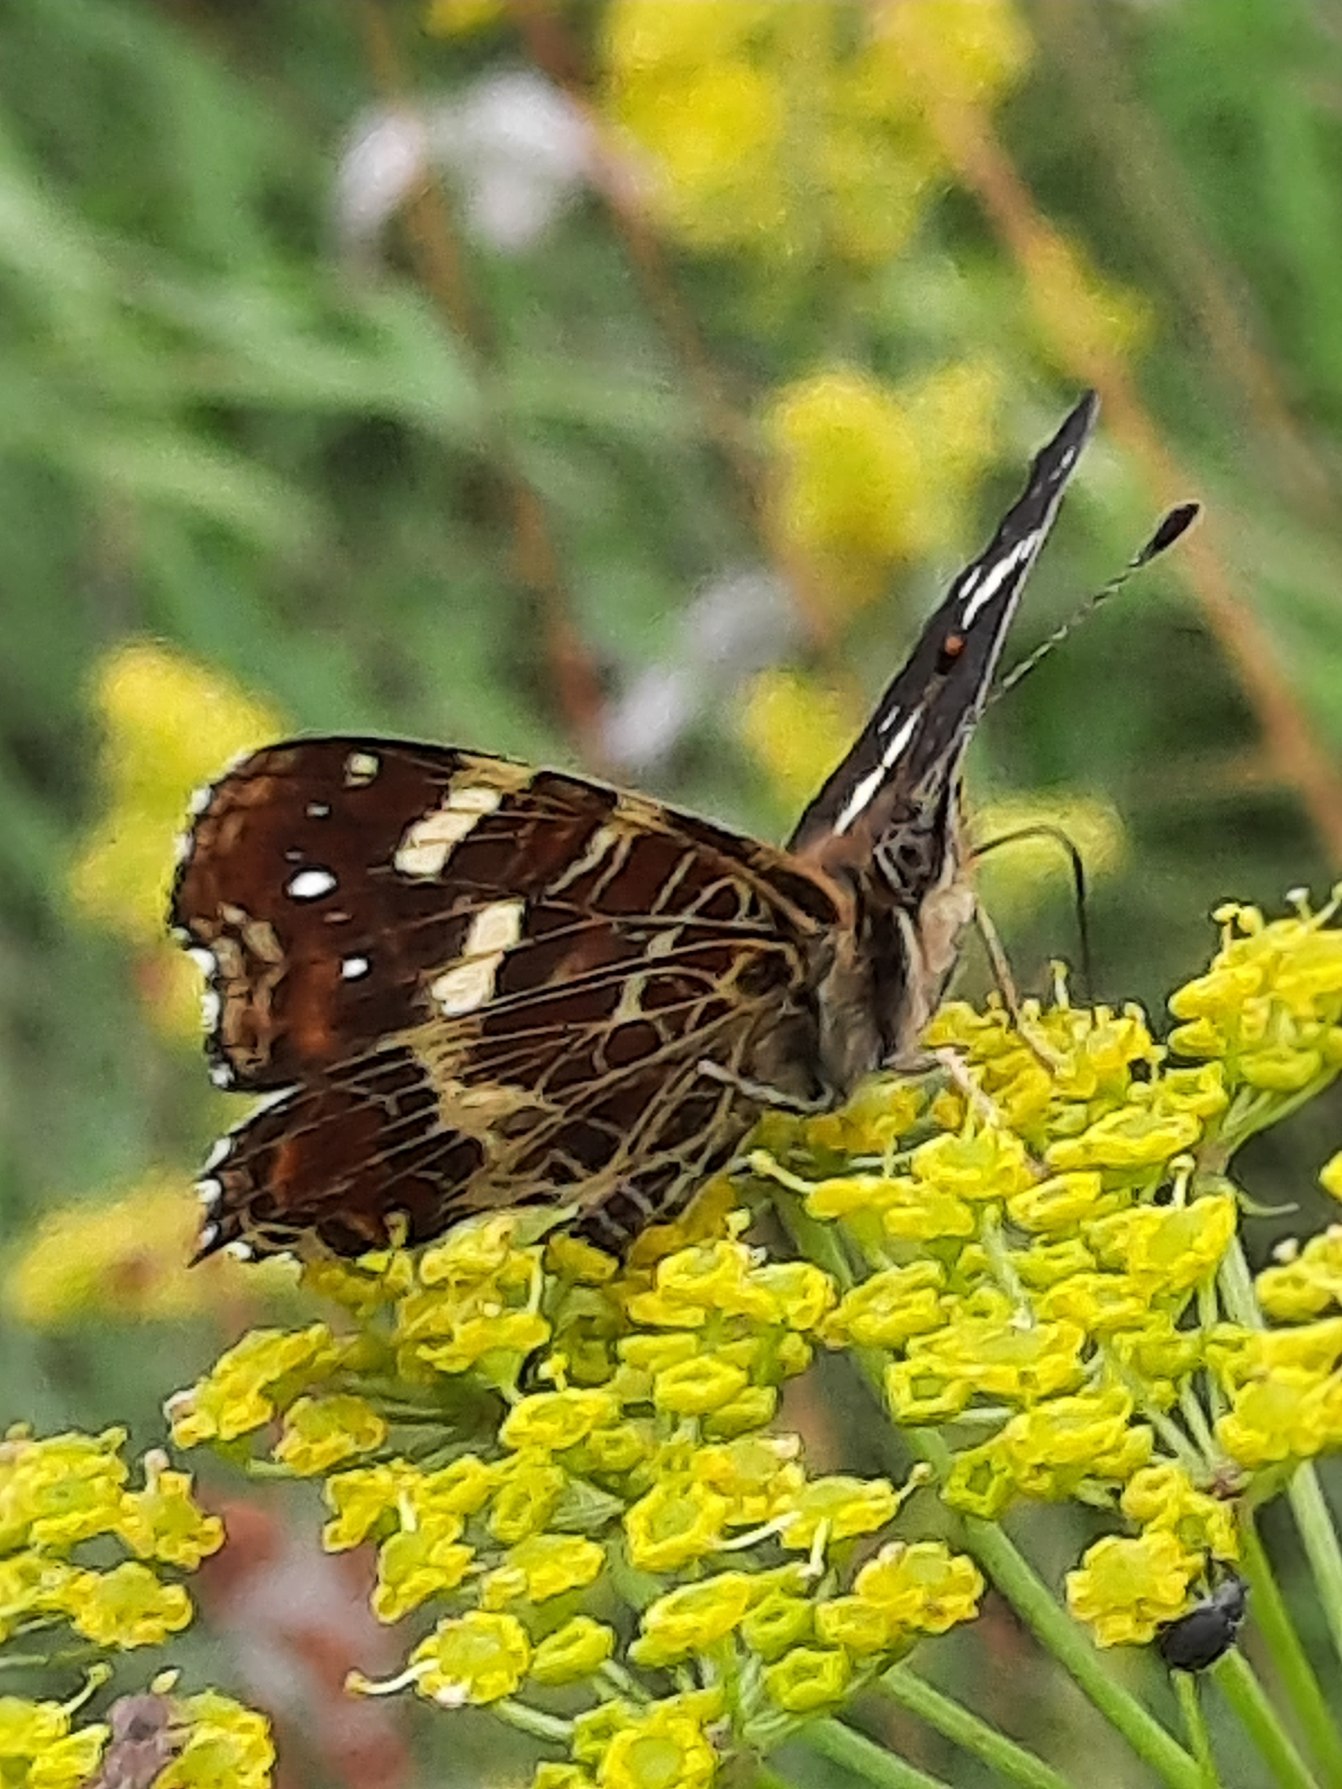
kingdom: Animalia
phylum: Arthropoda
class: Insecta
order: Lepidoptera
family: Nymphalidae
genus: Araschnia
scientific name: Araschnia levana
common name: Nældesommerfugl
